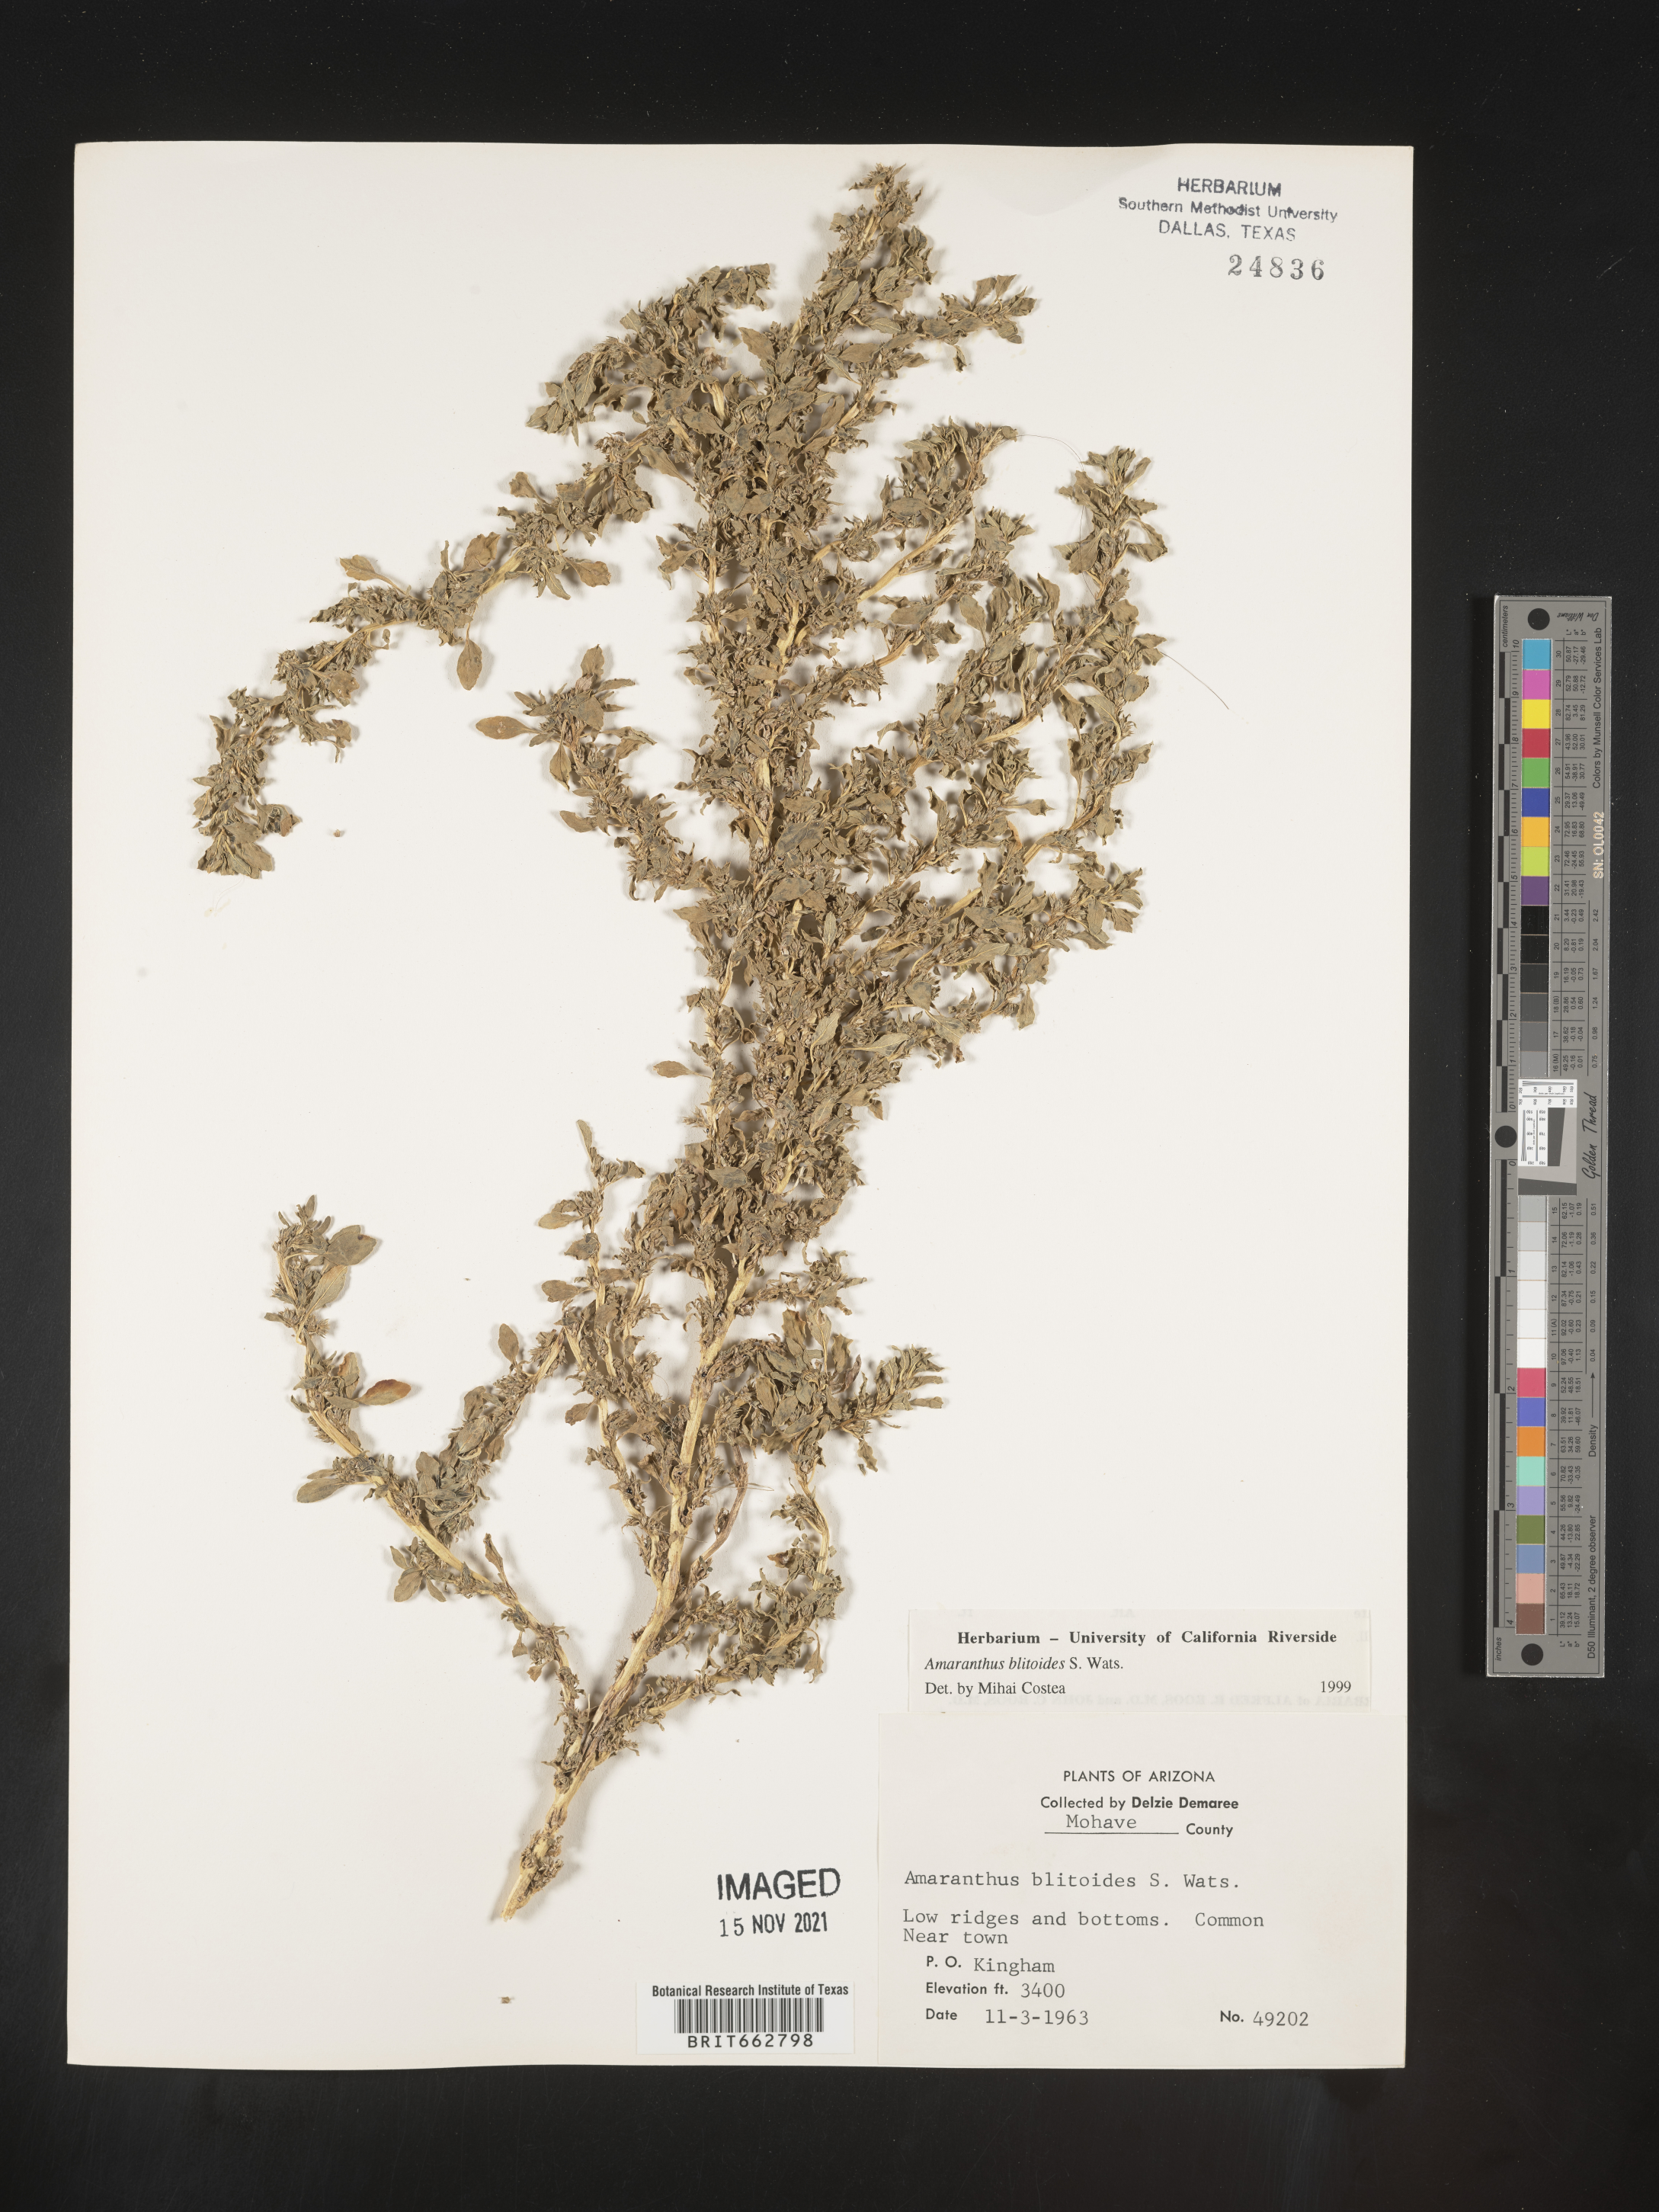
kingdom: Plantae
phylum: Tracheophyta
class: Magnoliopsida
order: Caryophyllales
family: Amaranthaceae
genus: Amaranthus
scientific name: Amaranthus blitoides
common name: Prostrate pigweed
